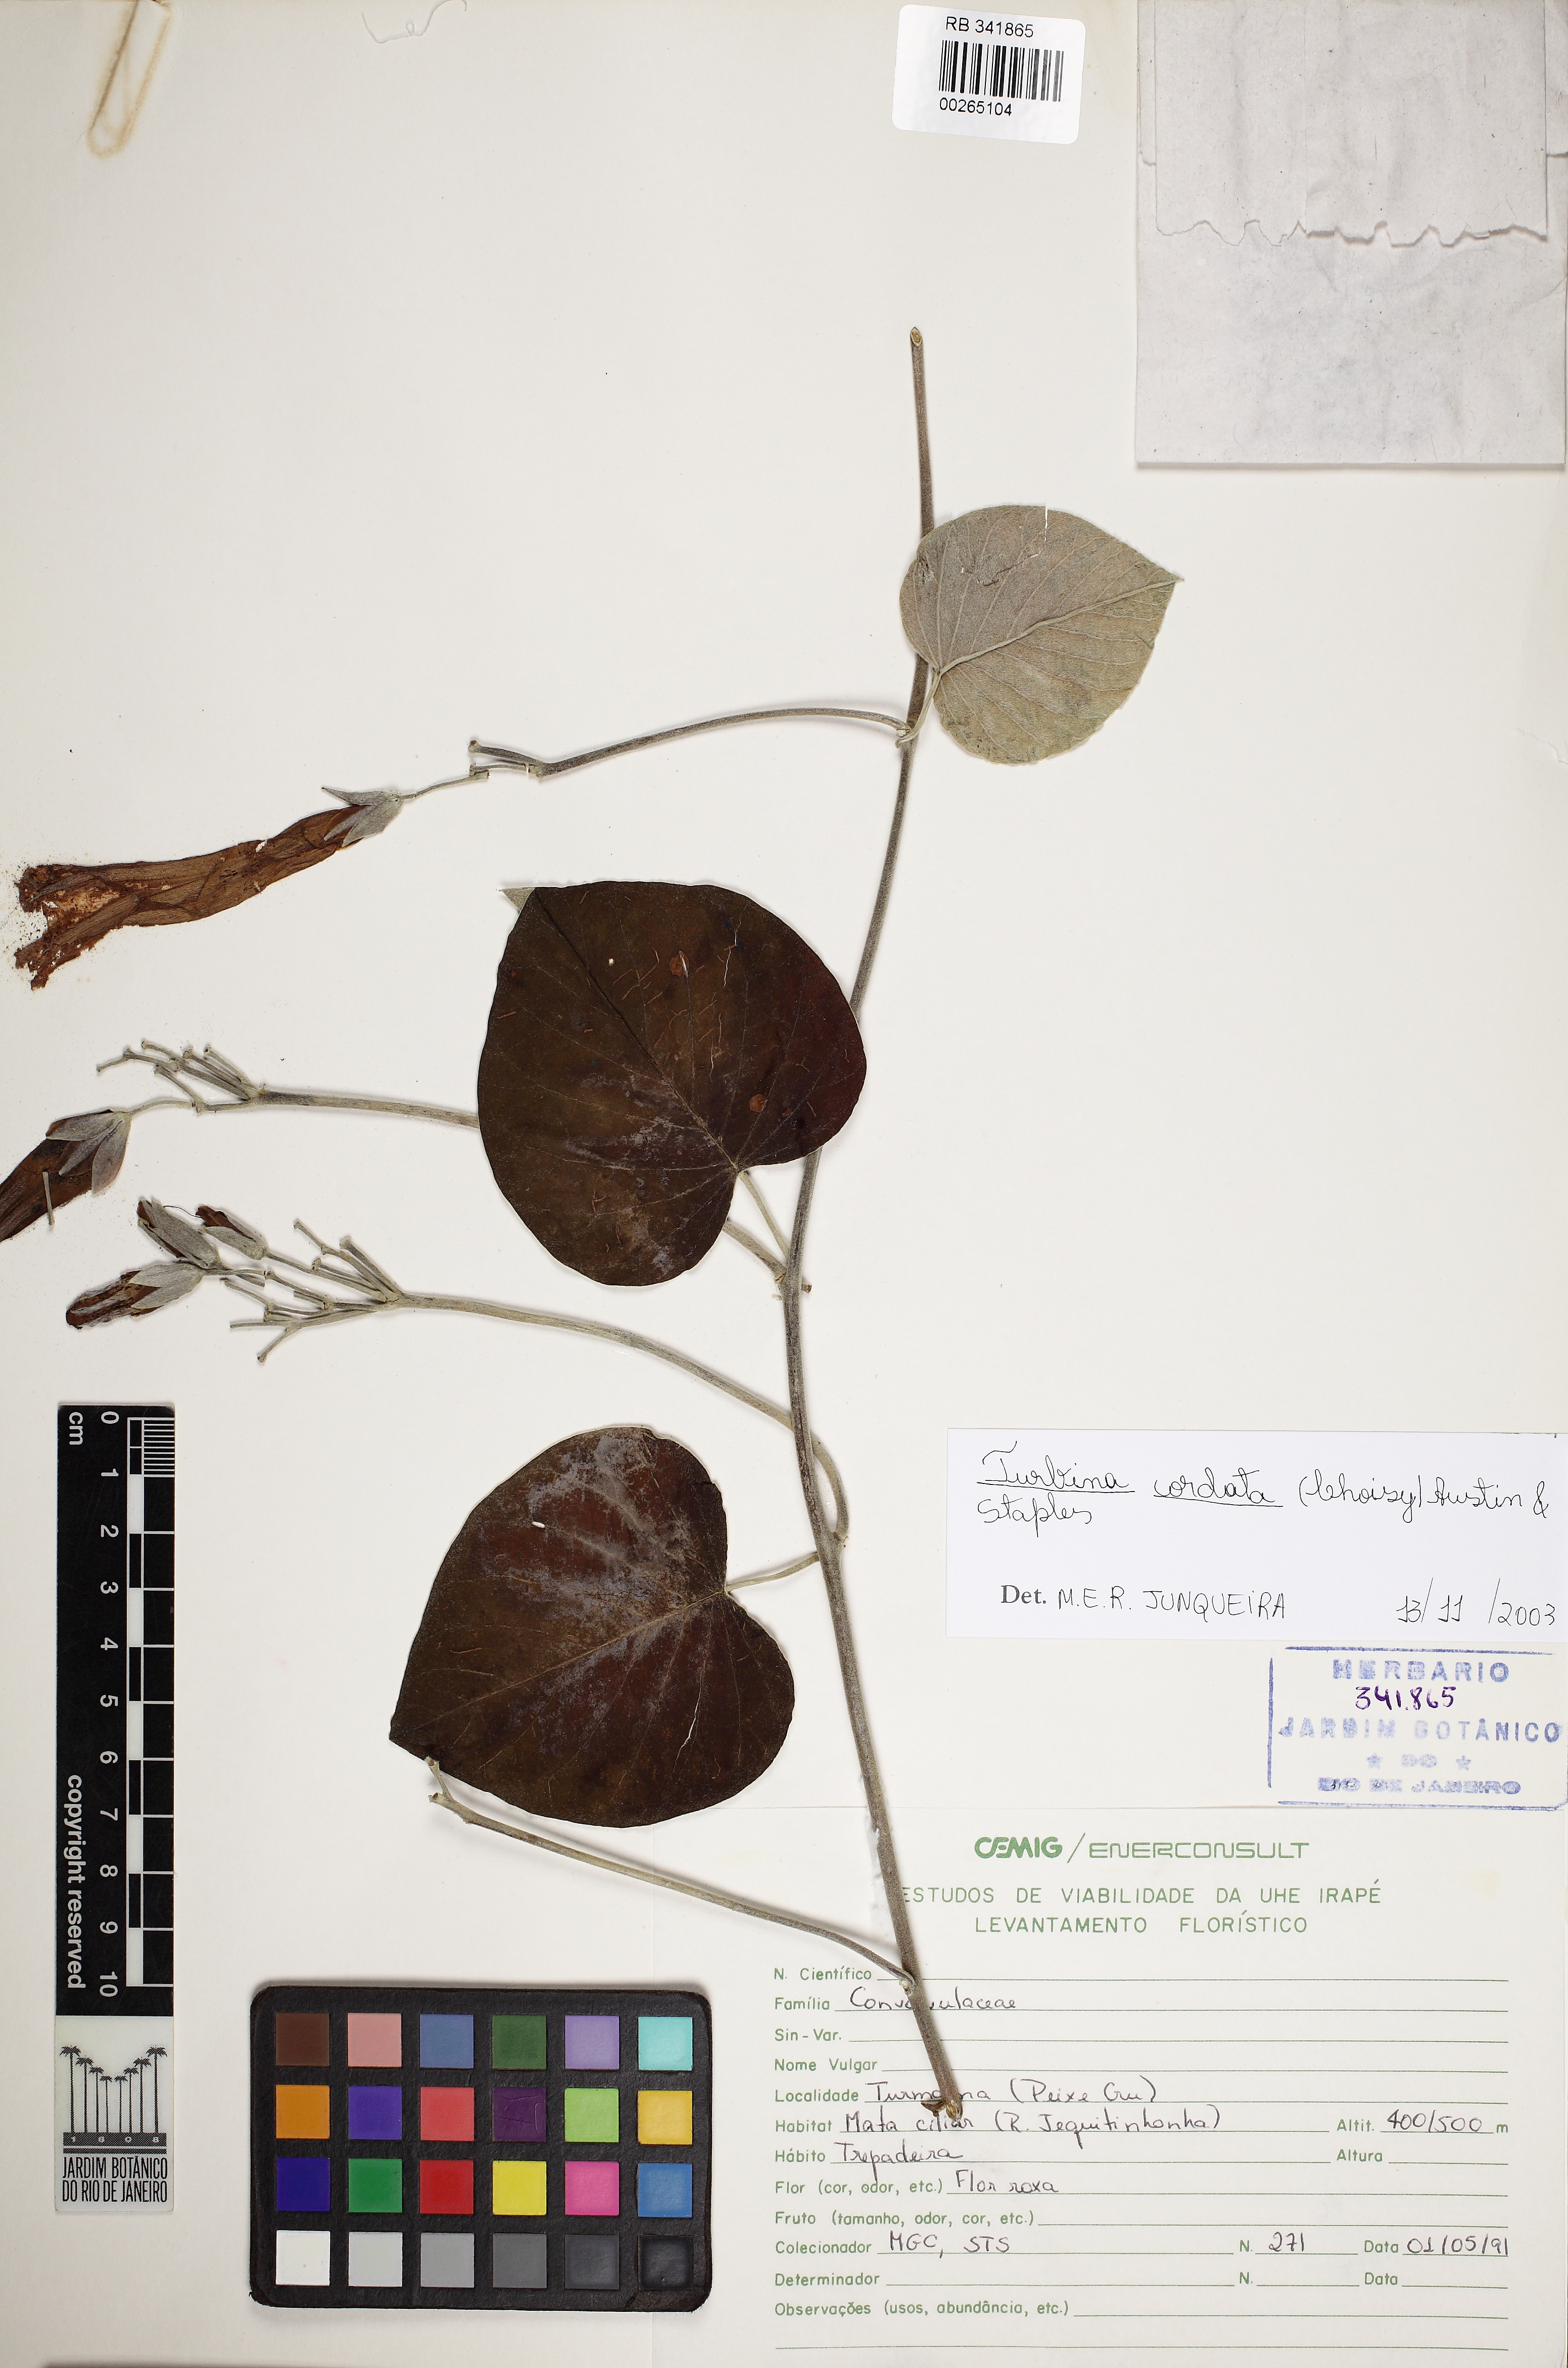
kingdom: Plantae
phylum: Tracheophyta
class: Magnoliopsida
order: Solanales
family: Convolvulaceae
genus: Ipomoea
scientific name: Ipomoea sericosepala
